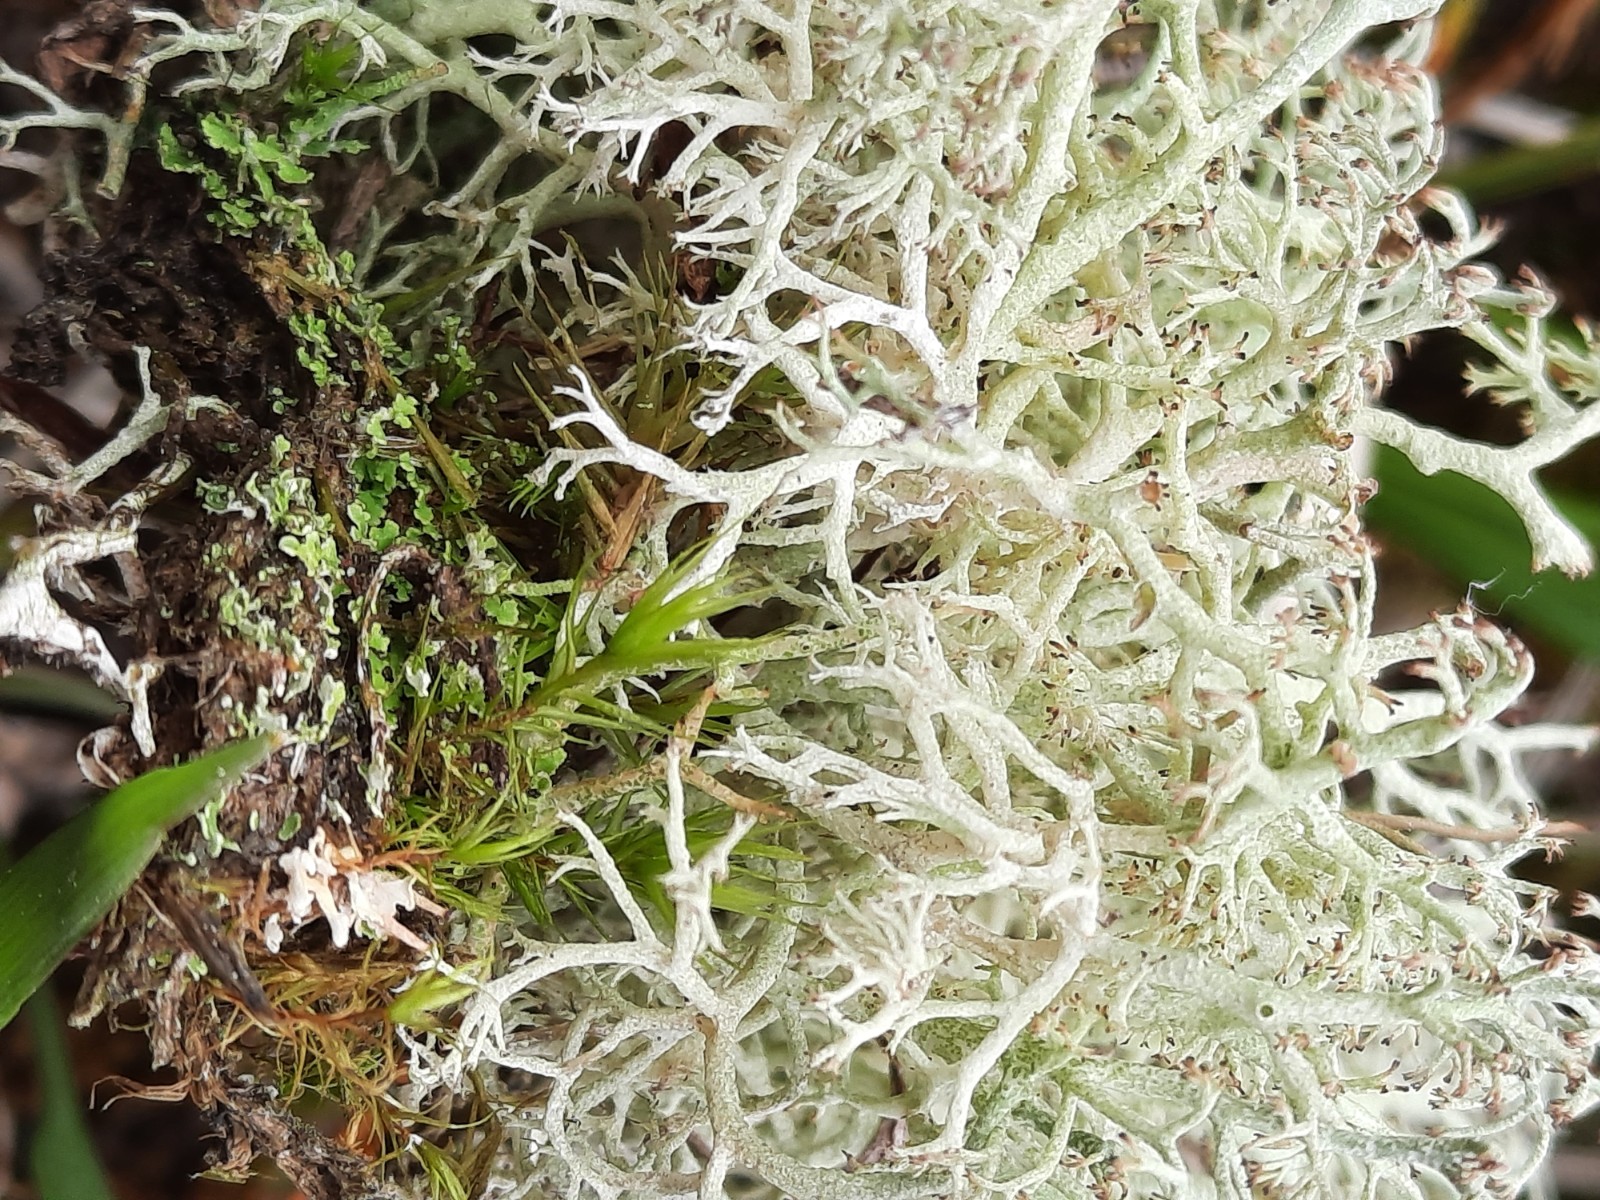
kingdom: Fungi
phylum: Ascomycota
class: Lecanoromycetes
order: Lecanorales
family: Cladoniaceae
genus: Cladonia
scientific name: Cladonia rangiformis
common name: spættet bægerlav
